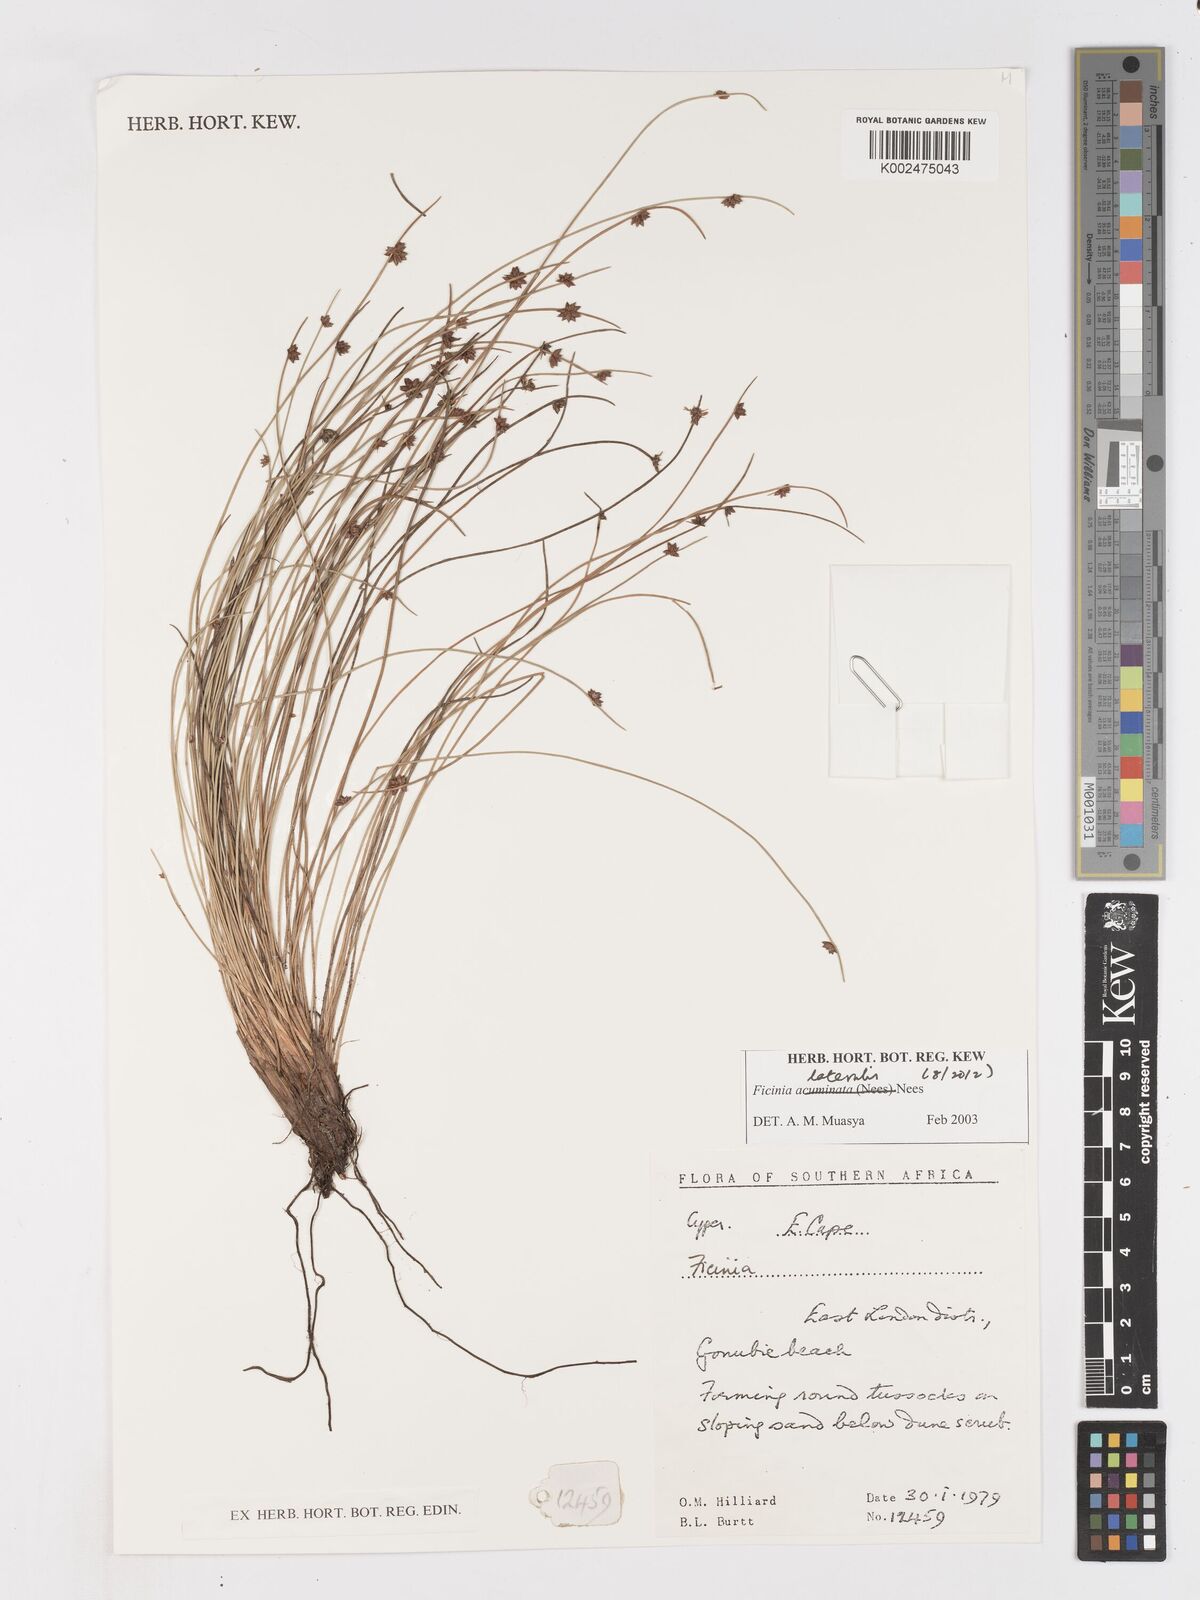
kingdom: Plantae
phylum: Tracheophyta
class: Liliopsida
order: Poales
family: Cyperaceae
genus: Ficinia
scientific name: Ficinia lateralis
